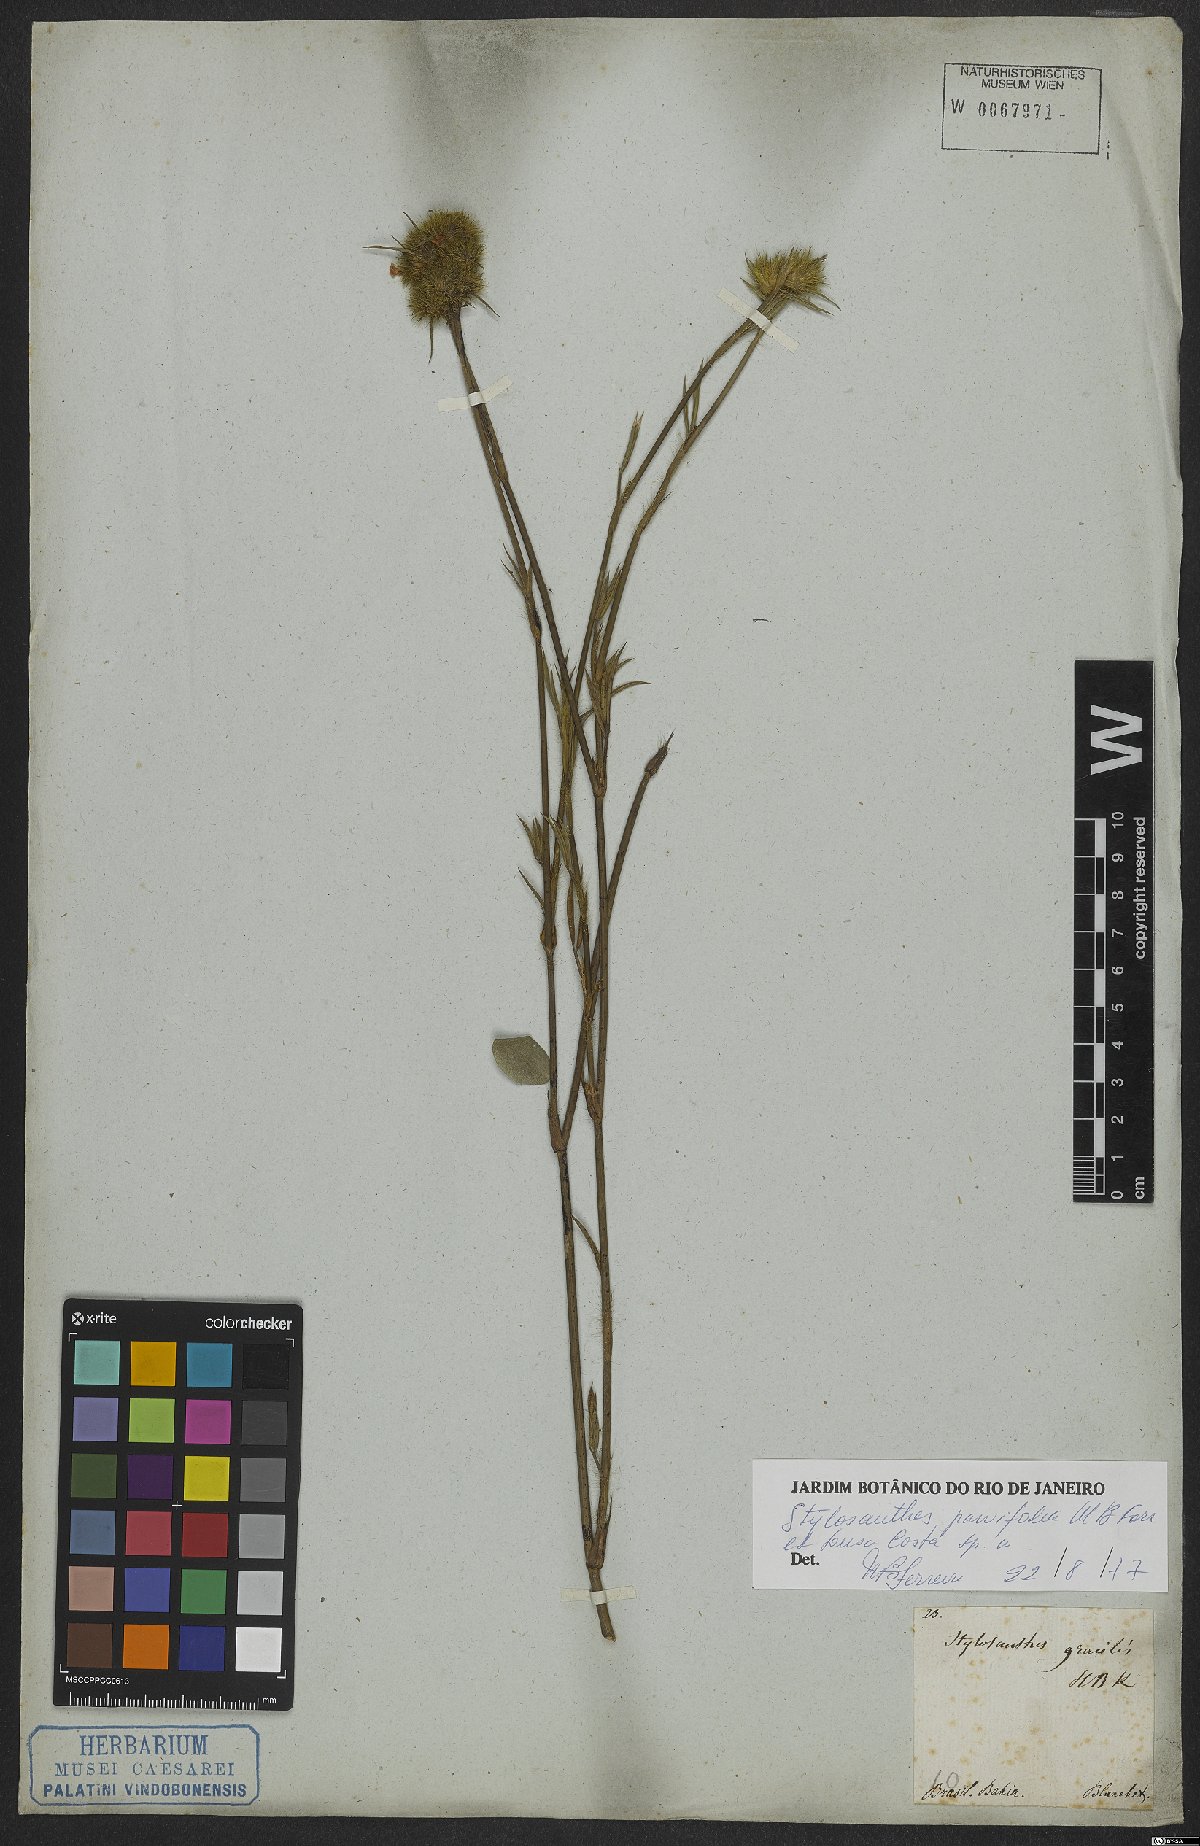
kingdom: Plantae
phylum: Tracheophyta
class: Magnoliopsida
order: Fabales
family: Fabaceae
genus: Stylosanthes
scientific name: Stylosanthes
